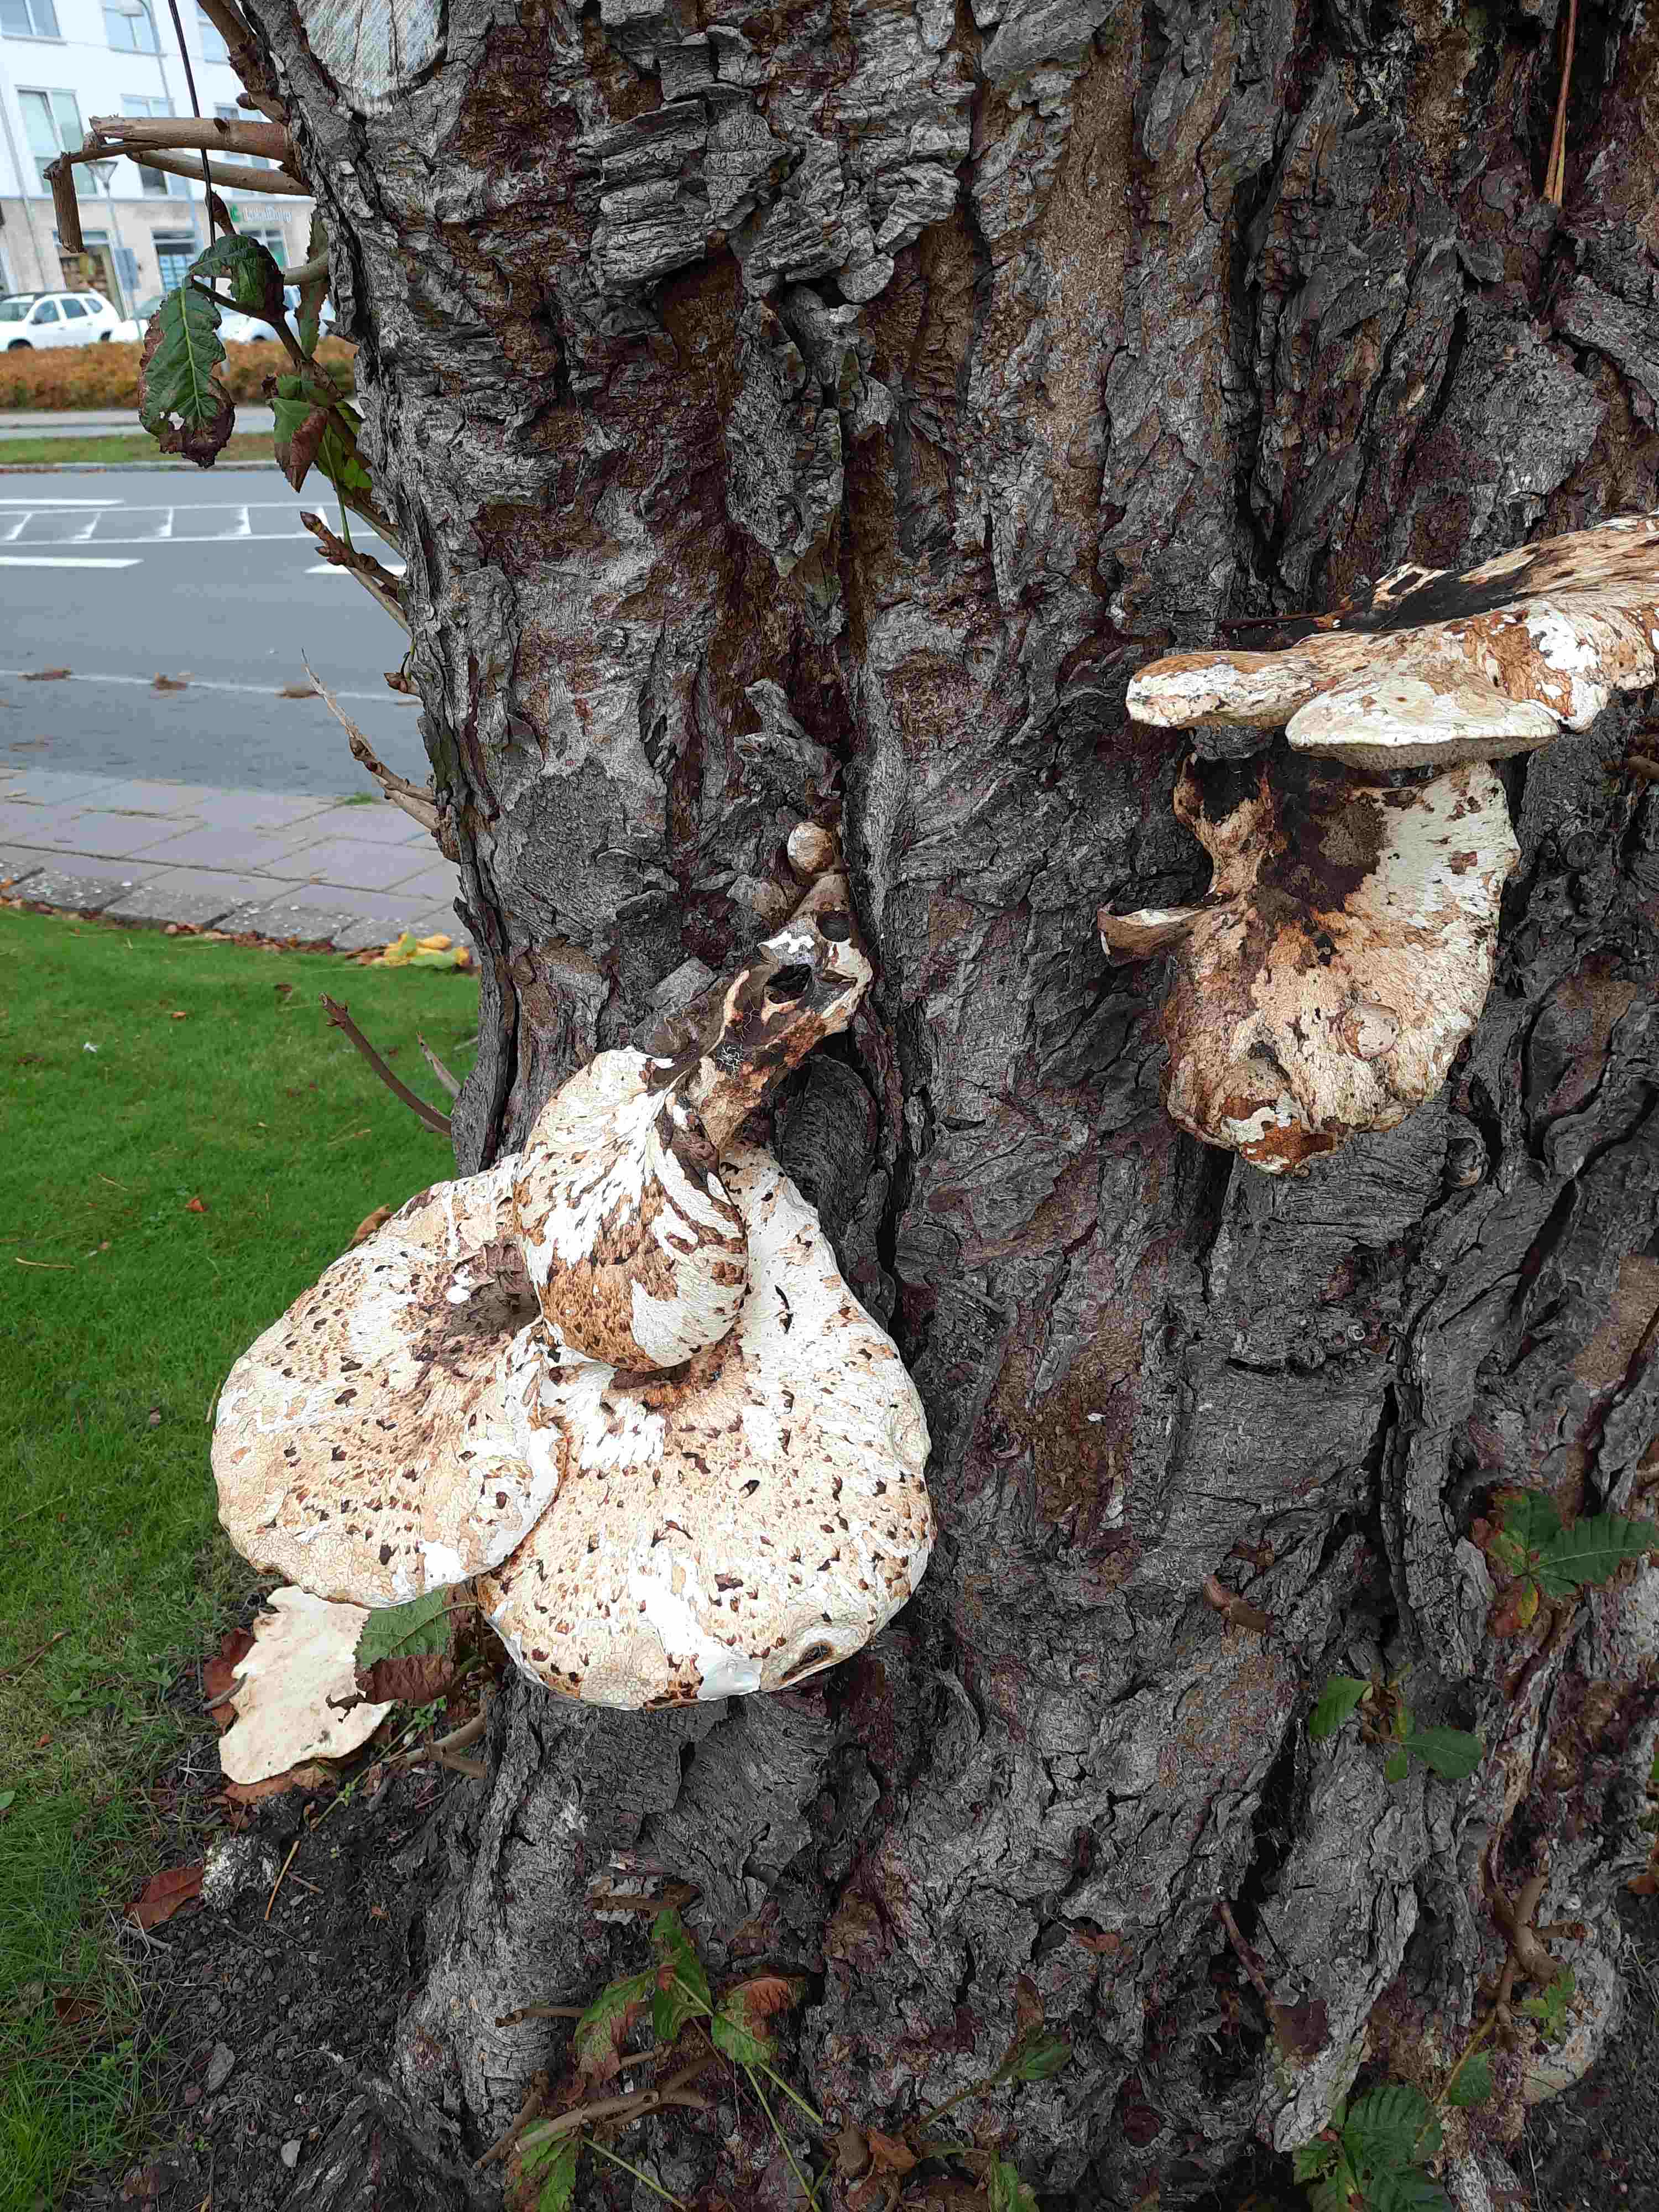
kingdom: Fungi
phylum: Basidiomycota
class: Agaricomycetes
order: Polyporales
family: Polyporaceae
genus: Cerioporus
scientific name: Cerioporus squamosus
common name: skællet stilkporesvamp
